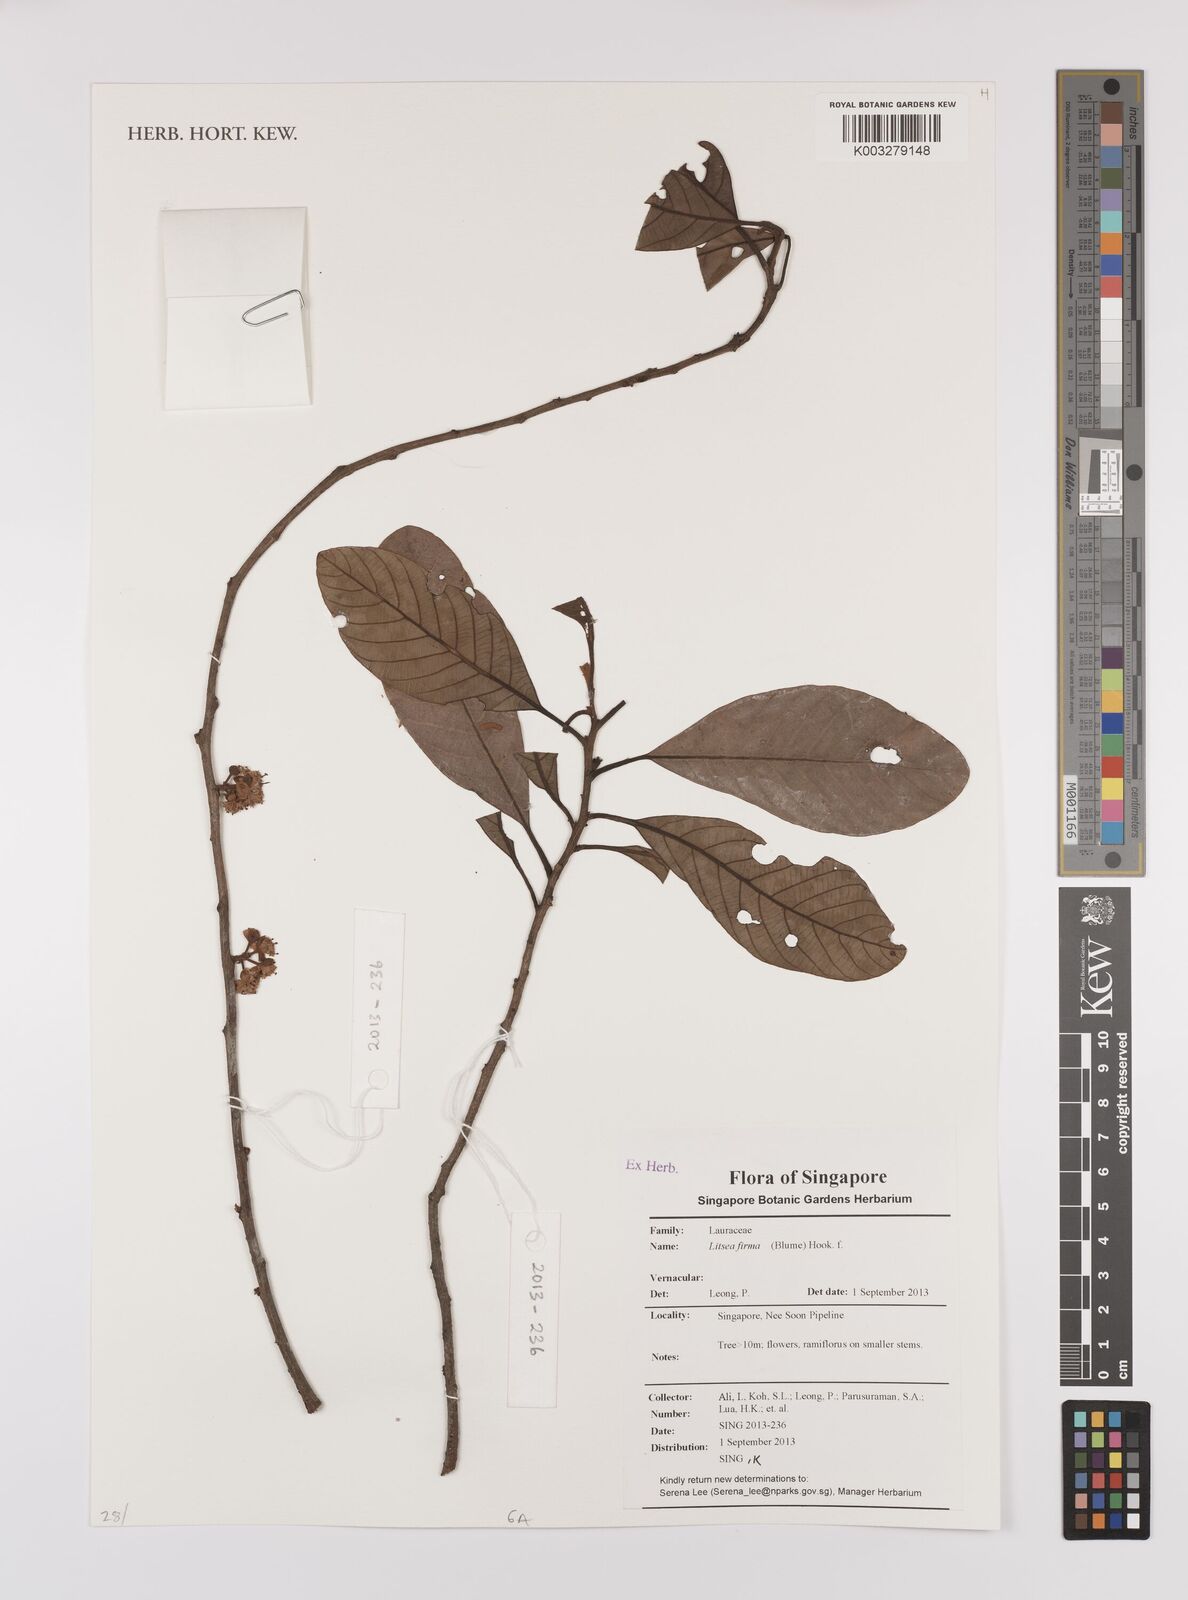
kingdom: Plantae
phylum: Tracheophyta
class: Magnoliopsida
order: Laurales
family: Lauraceae
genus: Litsea
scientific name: Litsea firma
